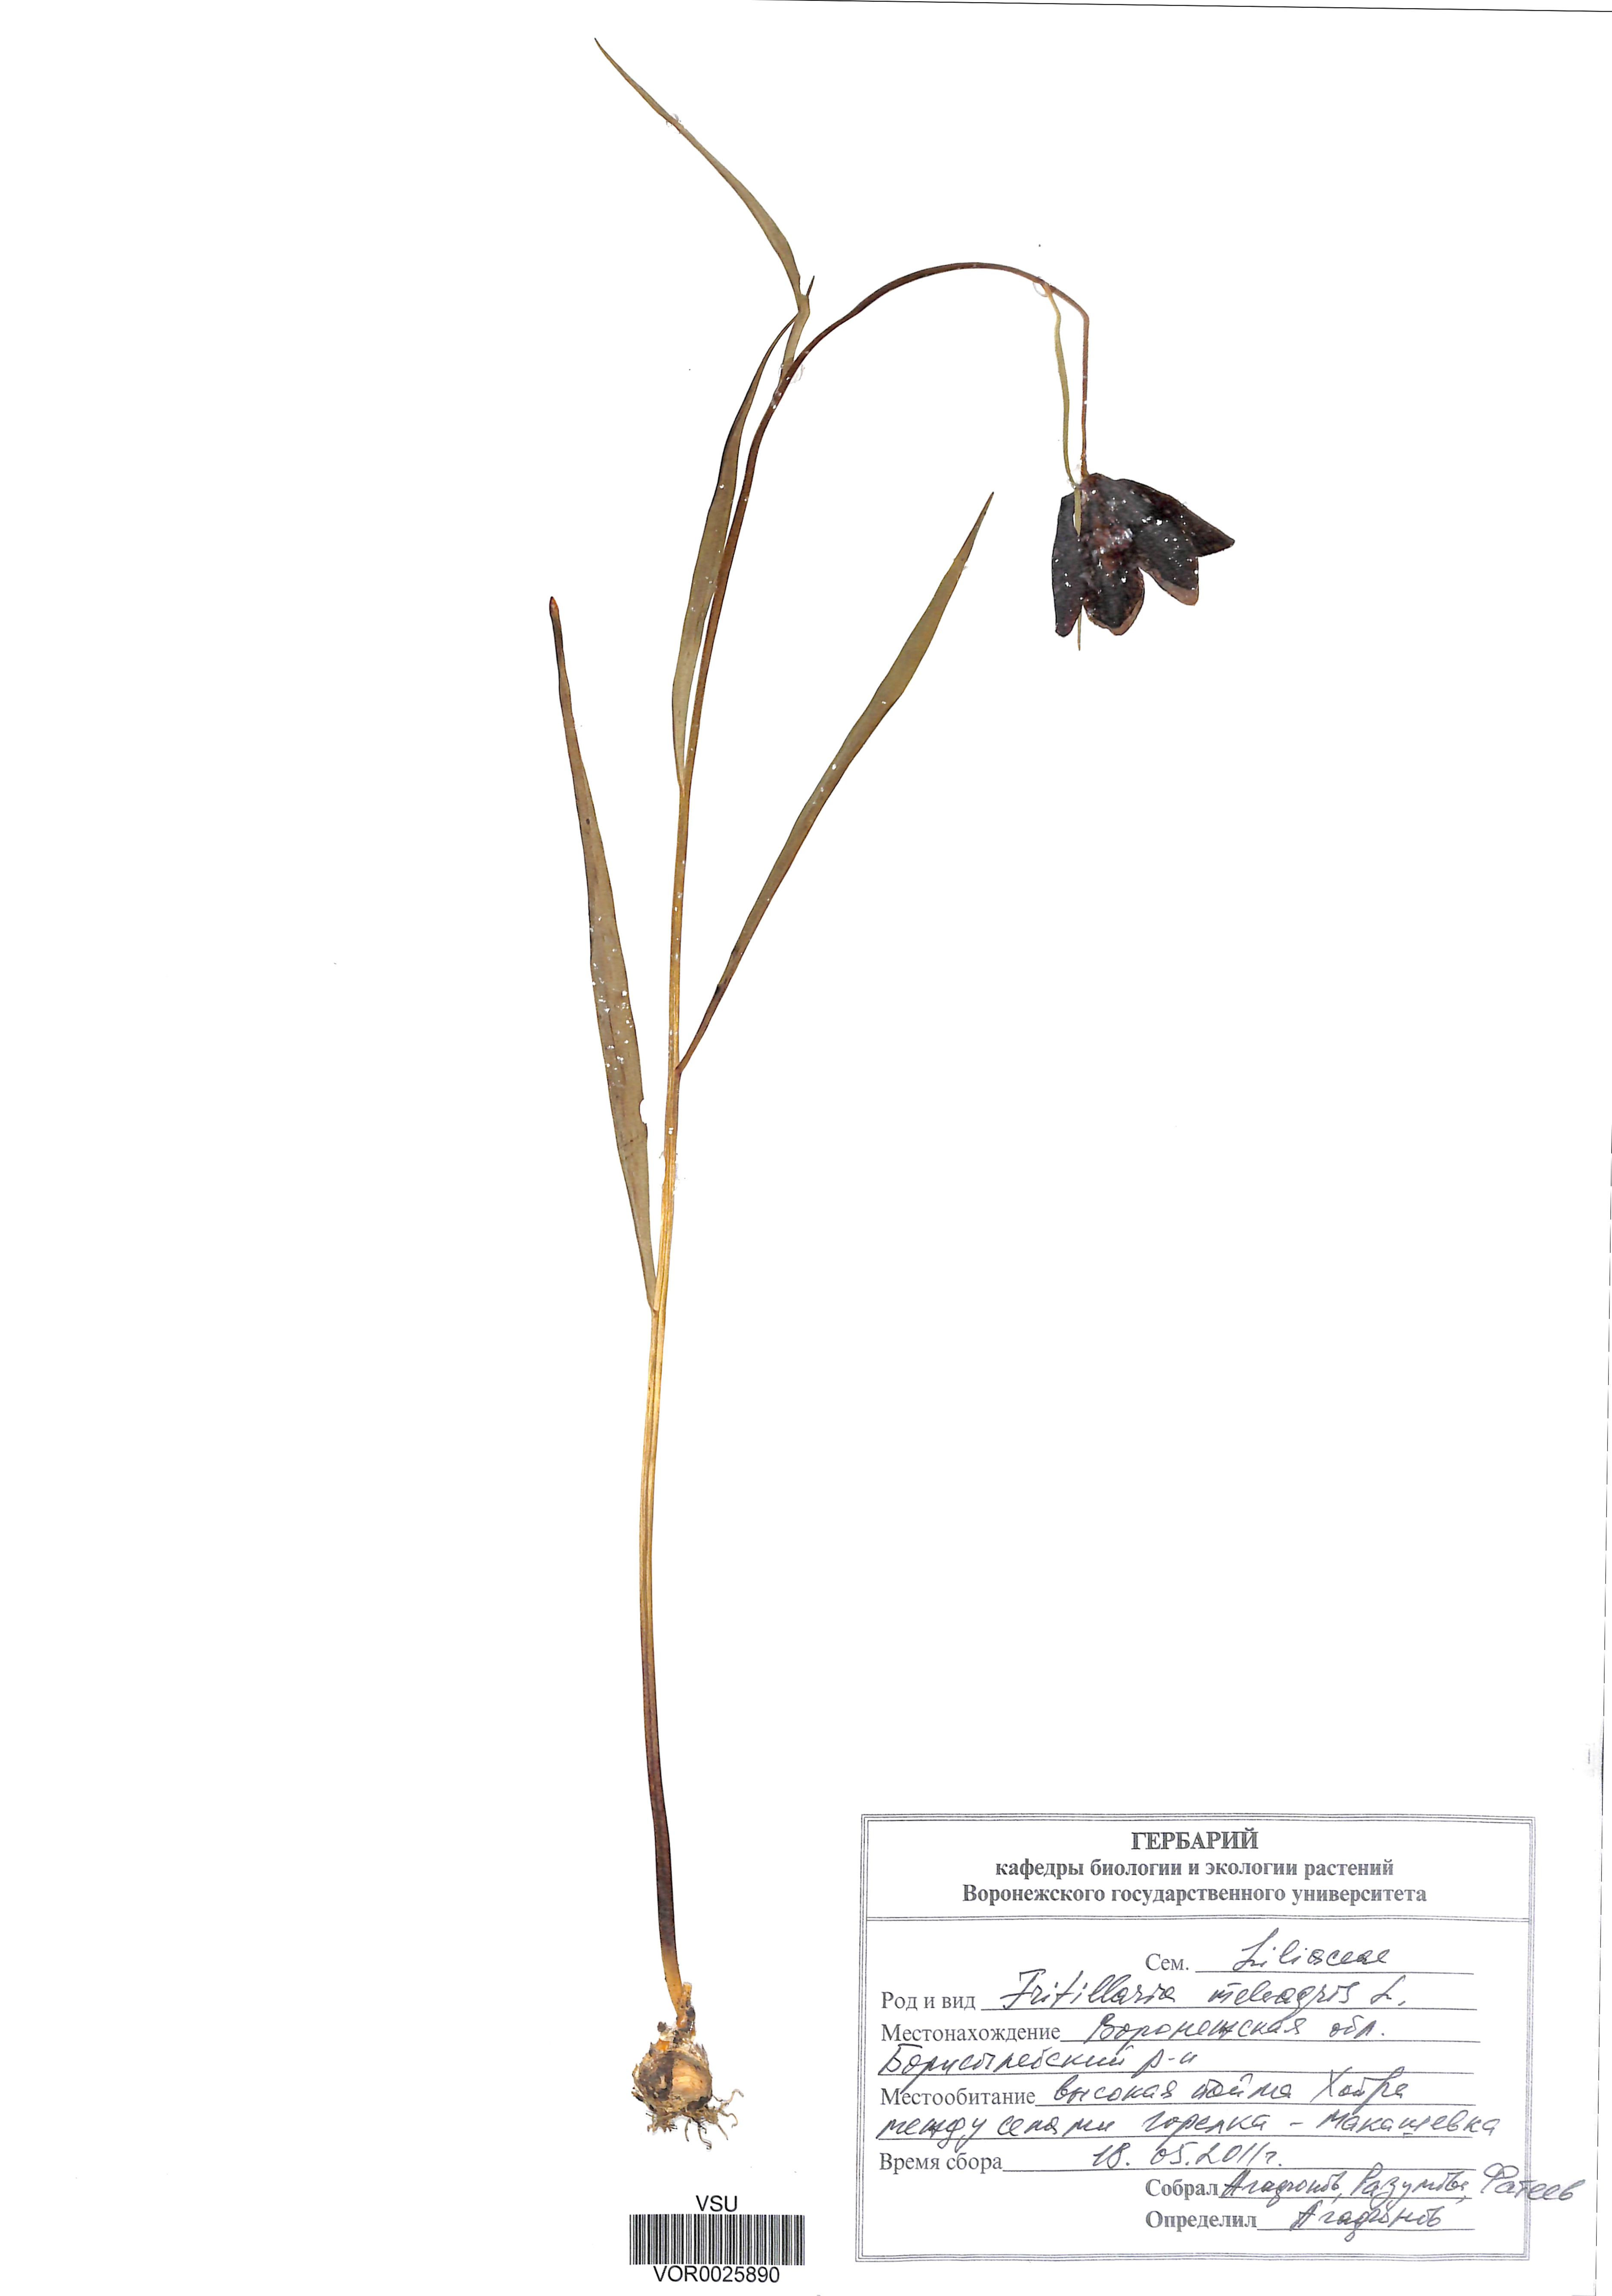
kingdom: Plantae
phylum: Tracheophyta
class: Liliopsida
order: Liliales
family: Liliaceae
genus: Fritillaria
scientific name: Fritillaria meleagris
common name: Fritillary
